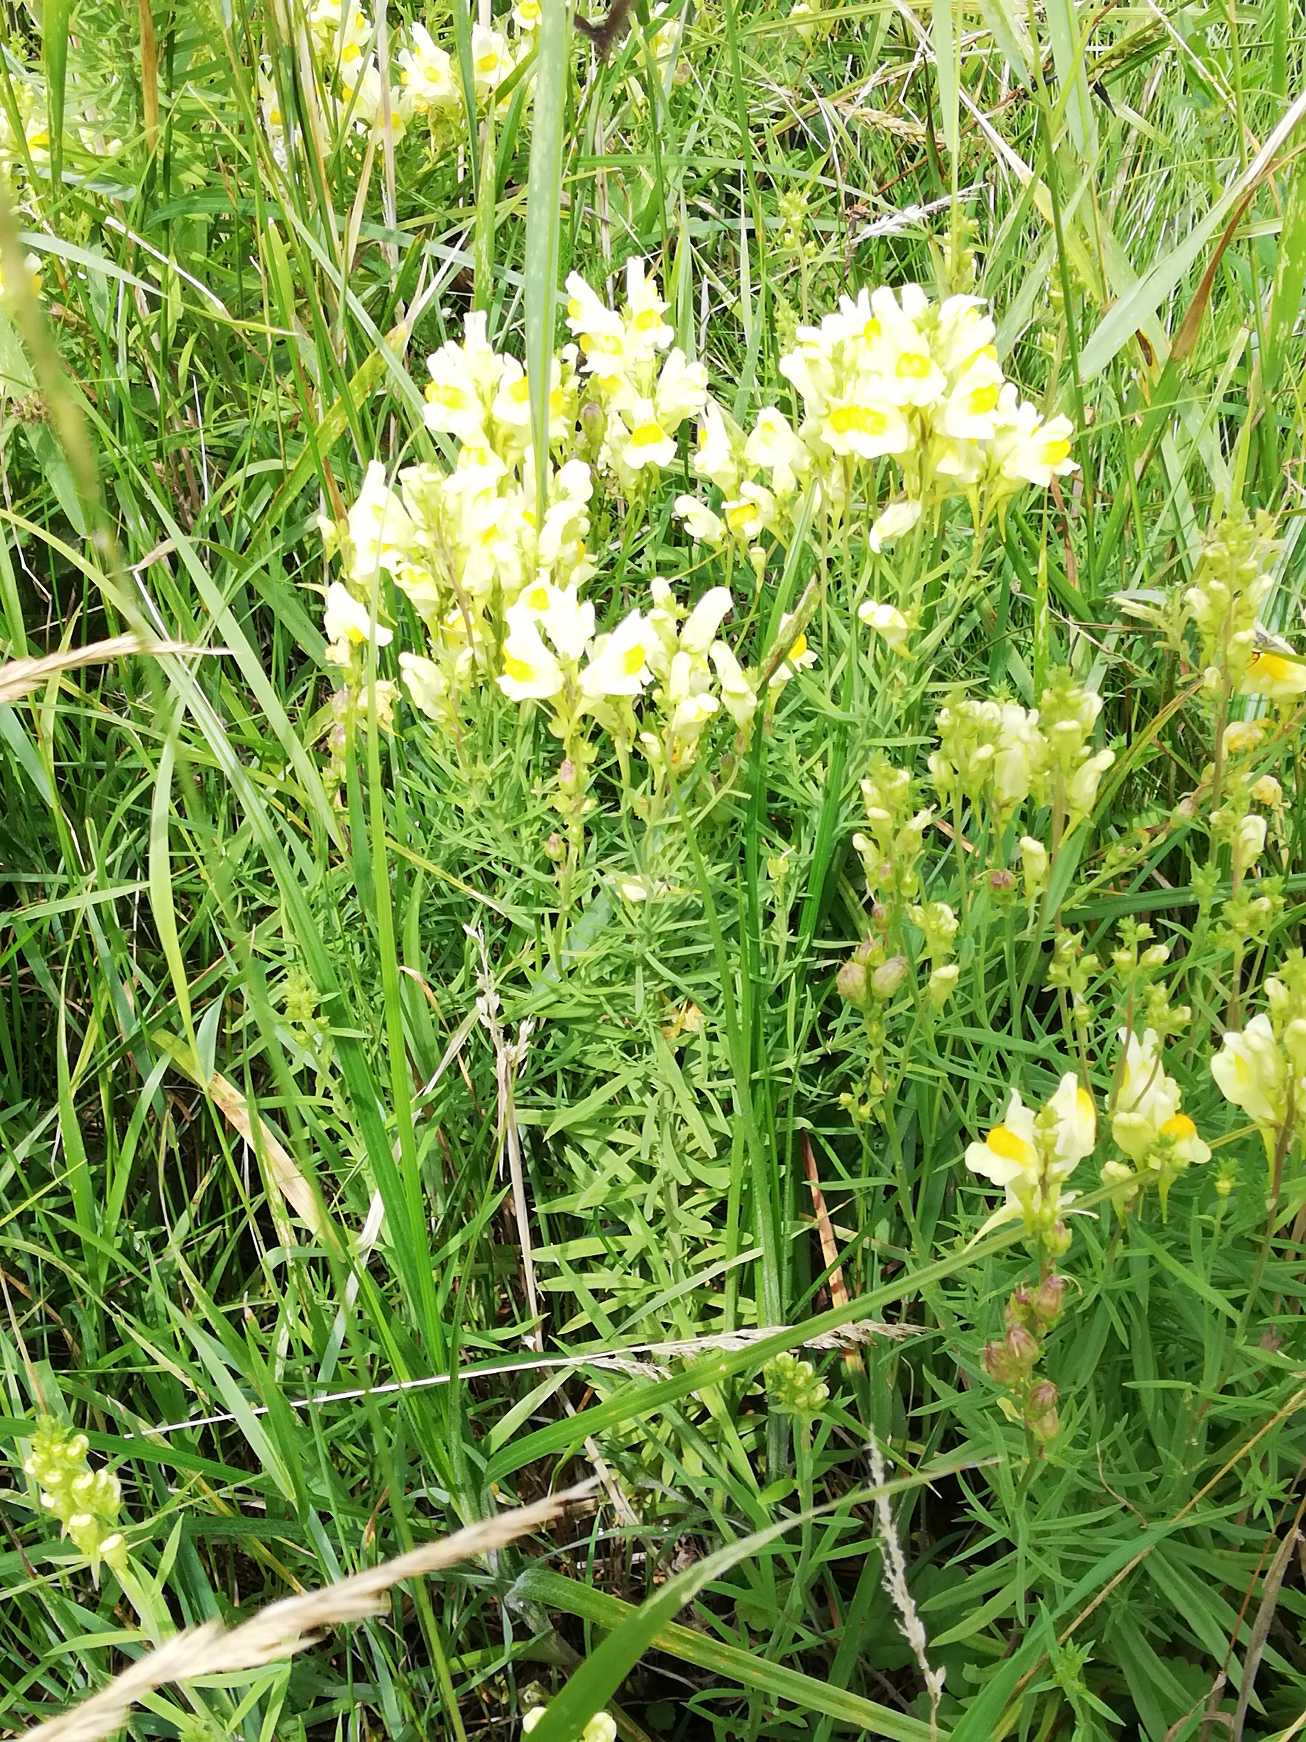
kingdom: Plantae
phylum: Tracheophyta
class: Magnoliopsida
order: Lamiales
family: Plantaginaceae
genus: Linaria
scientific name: Linaria vulgaris
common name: Almindelig torskemund
